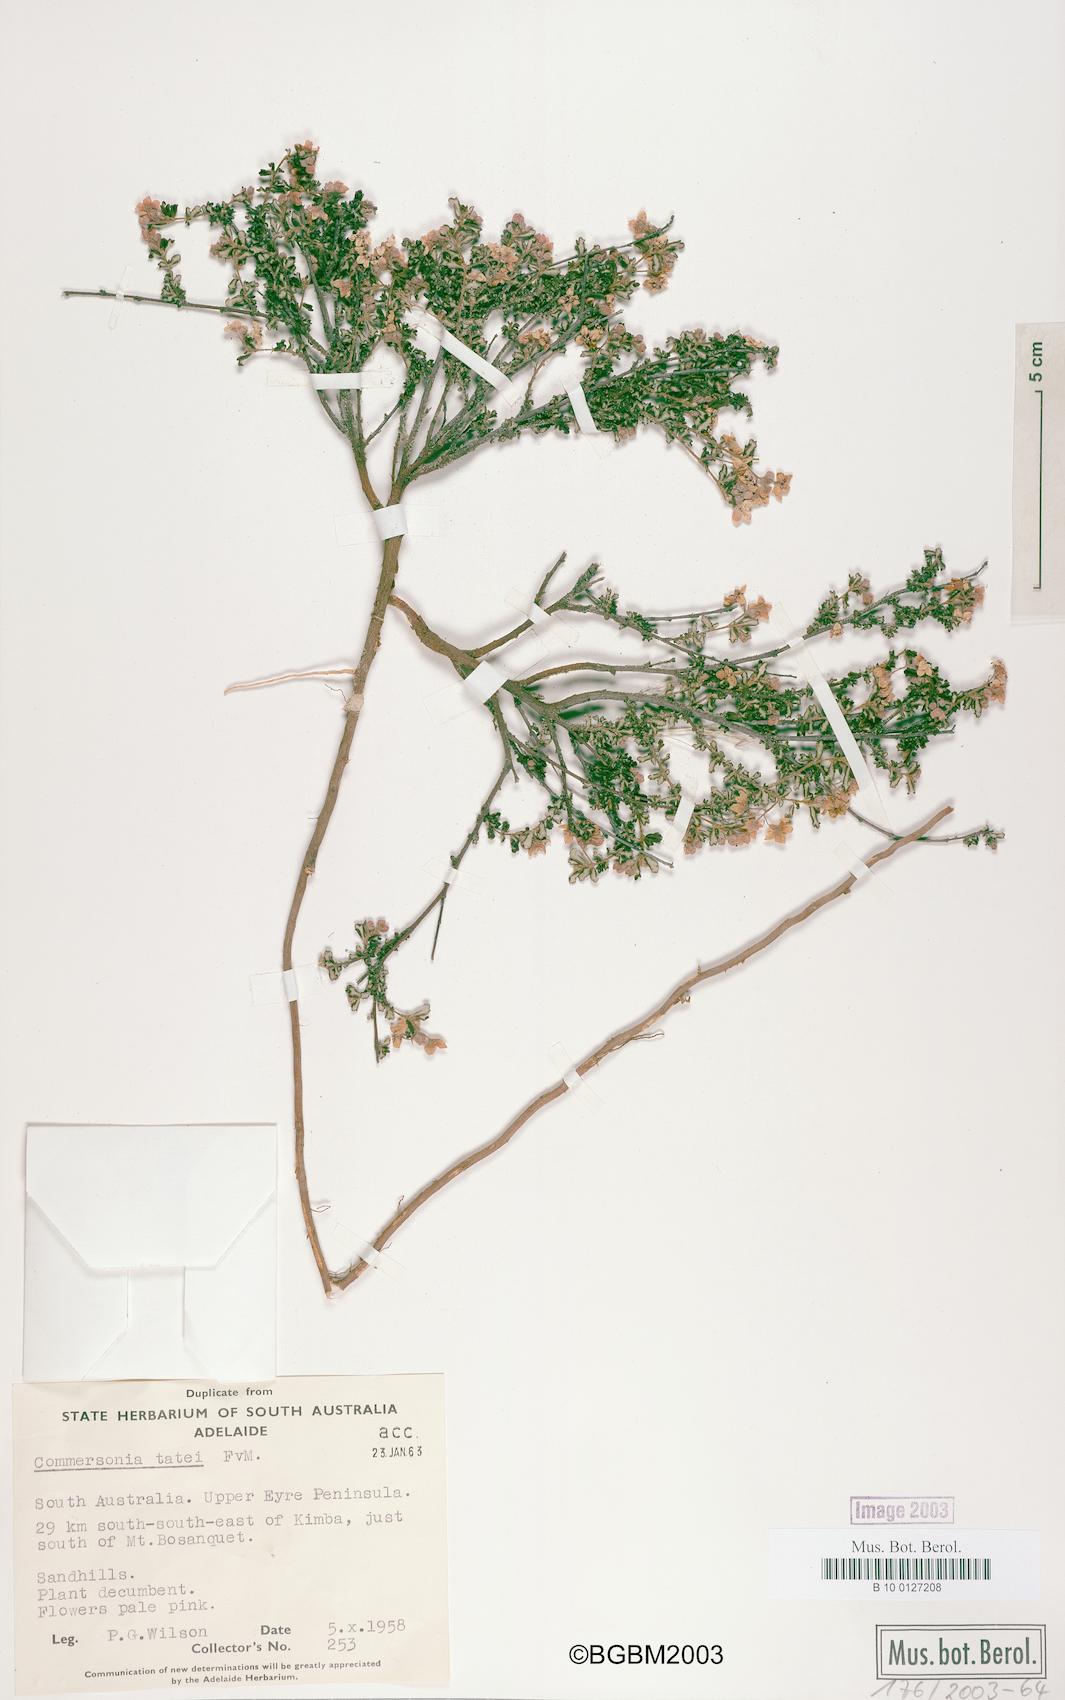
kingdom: Plantae
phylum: Tracheophyta
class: Magnoliopsida
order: Malvales
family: Malvaceae
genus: Androcalva
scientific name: Androcalva tatei
